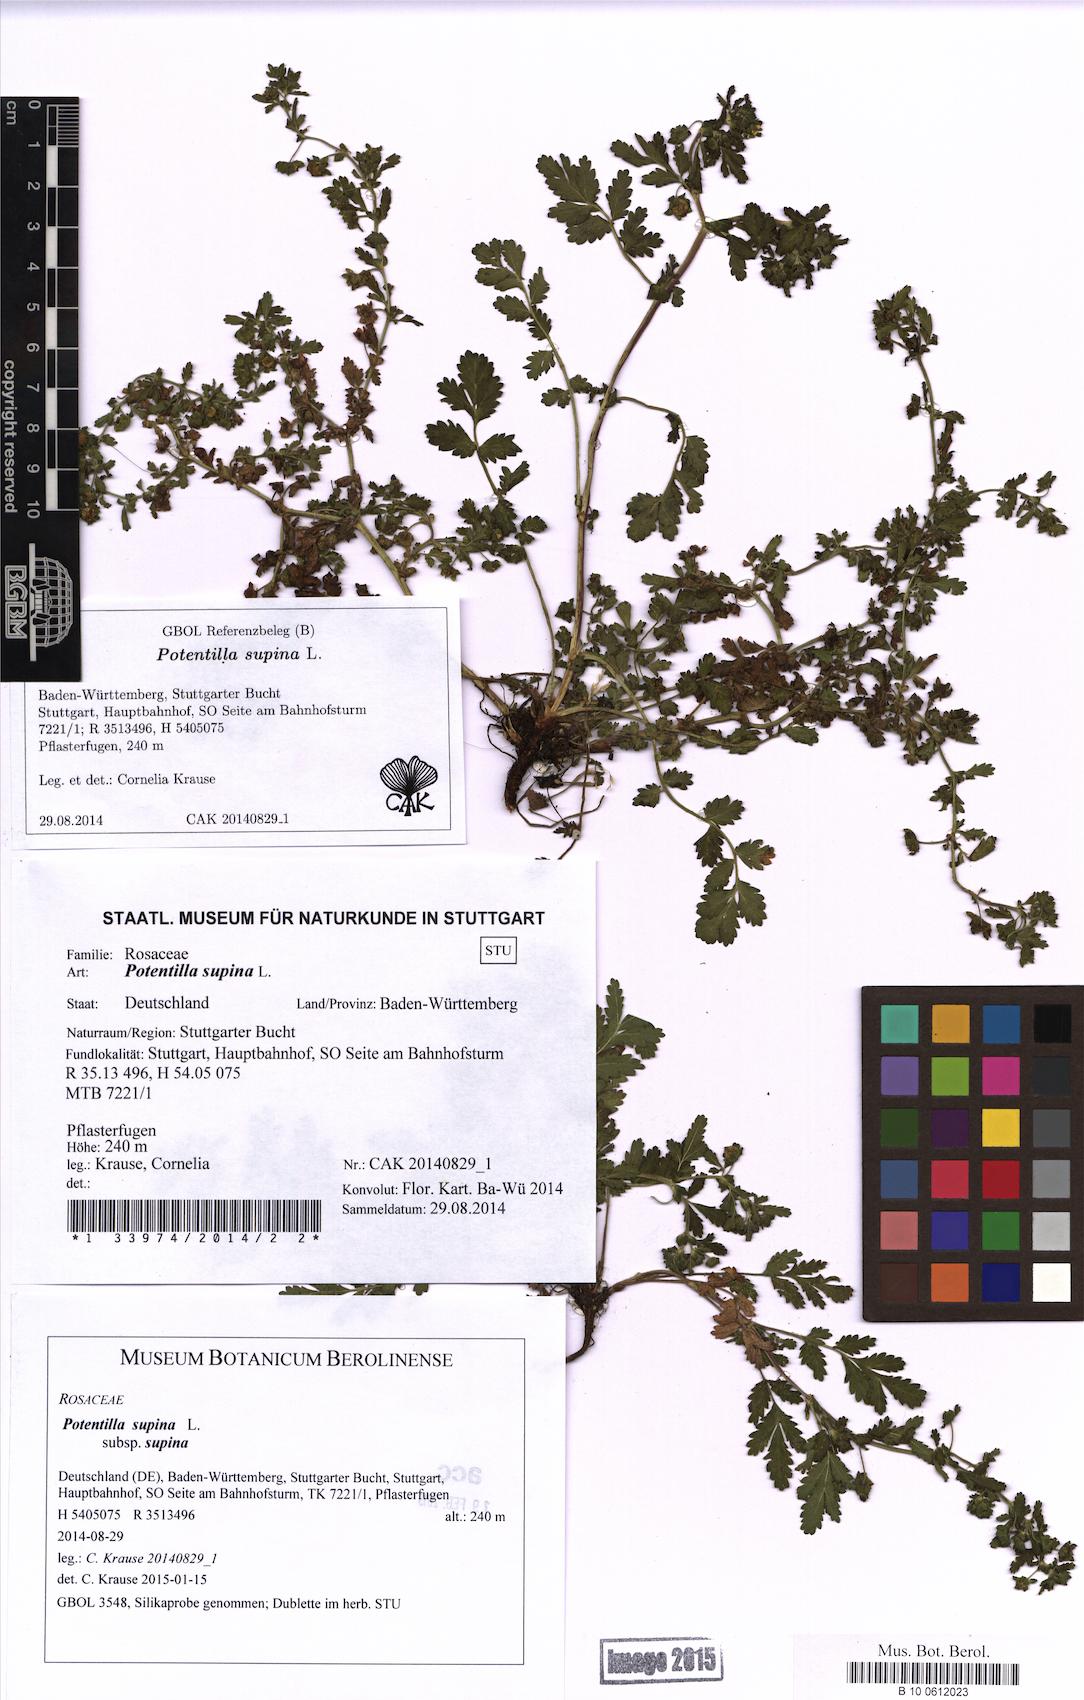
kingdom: Plantae
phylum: Tracheophyta
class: Magnoliopsida
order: Rosales
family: Rosaceae
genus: Potentilla
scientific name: Potentilla supina
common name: Prostrate cinquefoil
